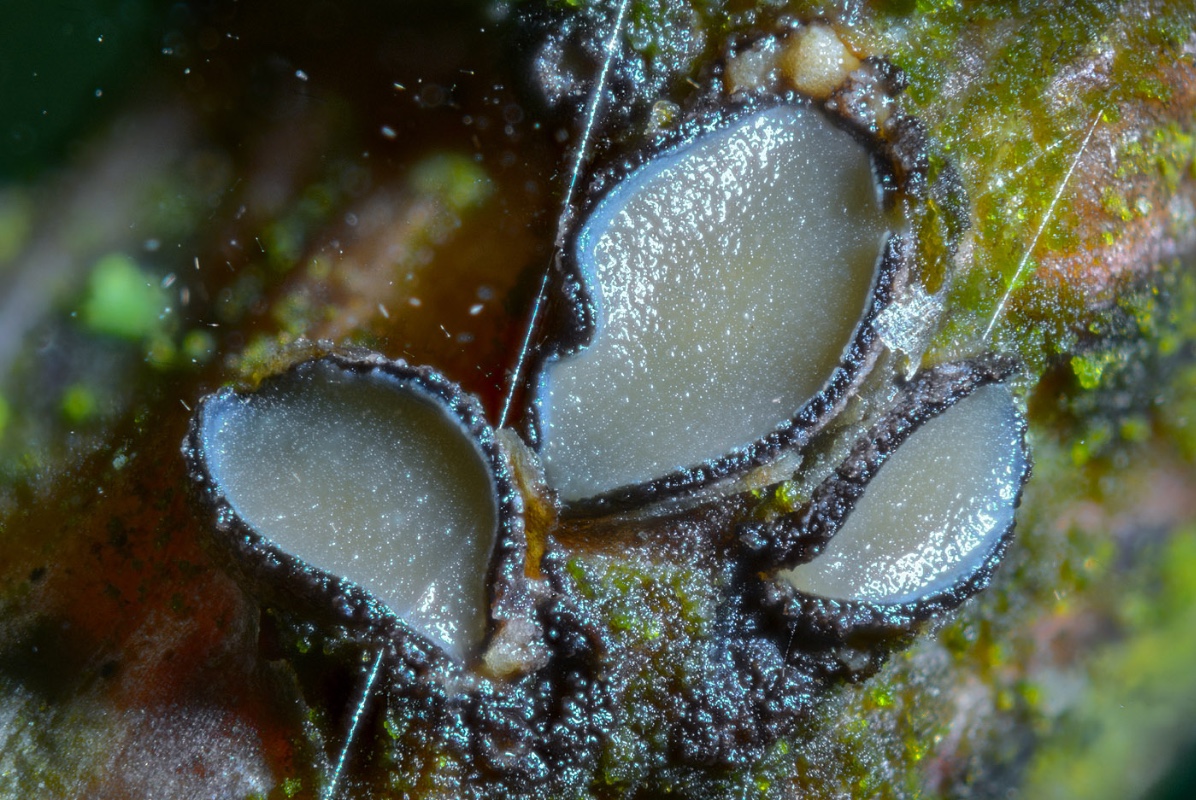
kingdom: Fungi
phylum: Ascomycota
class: Leotiomycetes
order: Rhytismatales
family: Rhytismataceae
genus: Colpoma
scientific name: Colpoma quercinum
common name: ege-sprækkeskive
